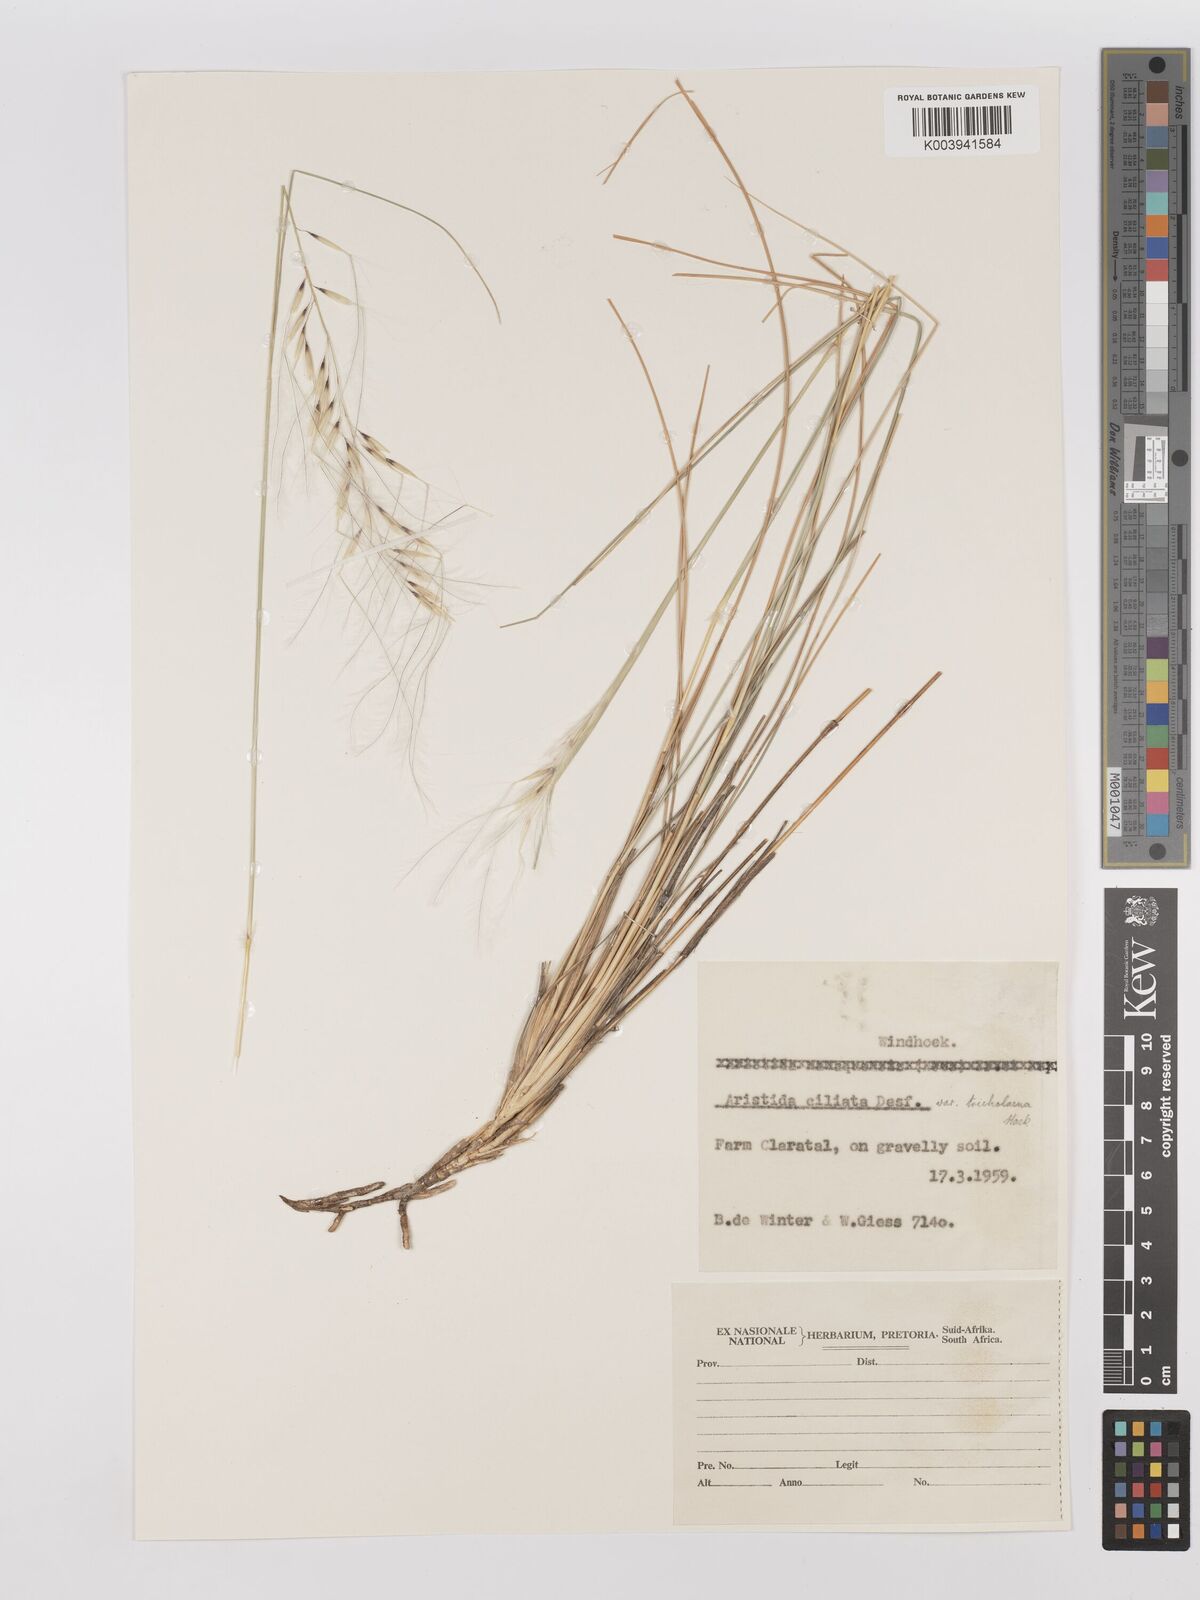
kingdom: Plantae
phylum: Tracheophyta
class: Liliopsida
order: Poales
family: Poaceae
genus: Stipagrostis
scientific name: Stipagrostis ciliata
